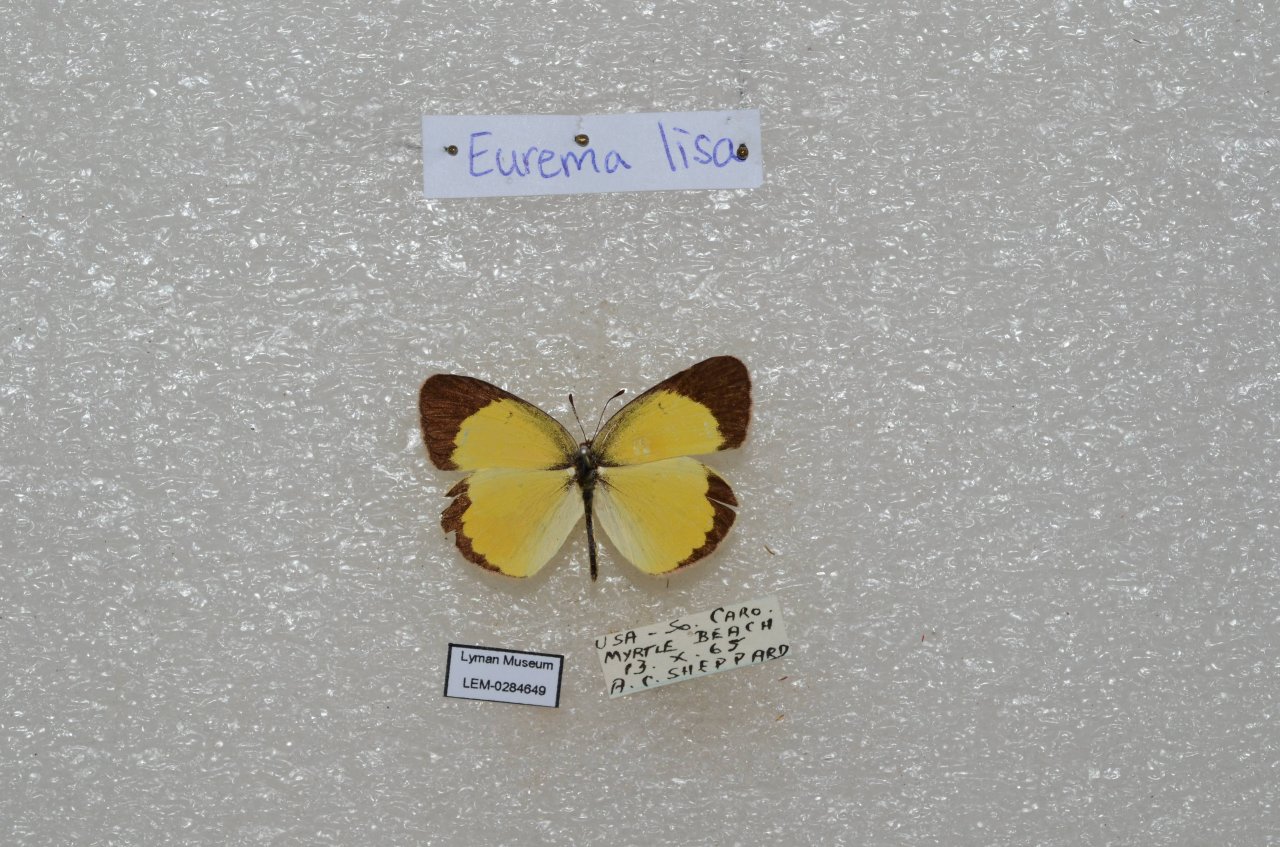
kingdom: Animalia
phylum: Arthropoda
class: Insecta
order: Lepidoptera
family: Pieridae
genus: Pyrisitia
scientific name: Pyrisitia lisa
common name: Little Yellow
